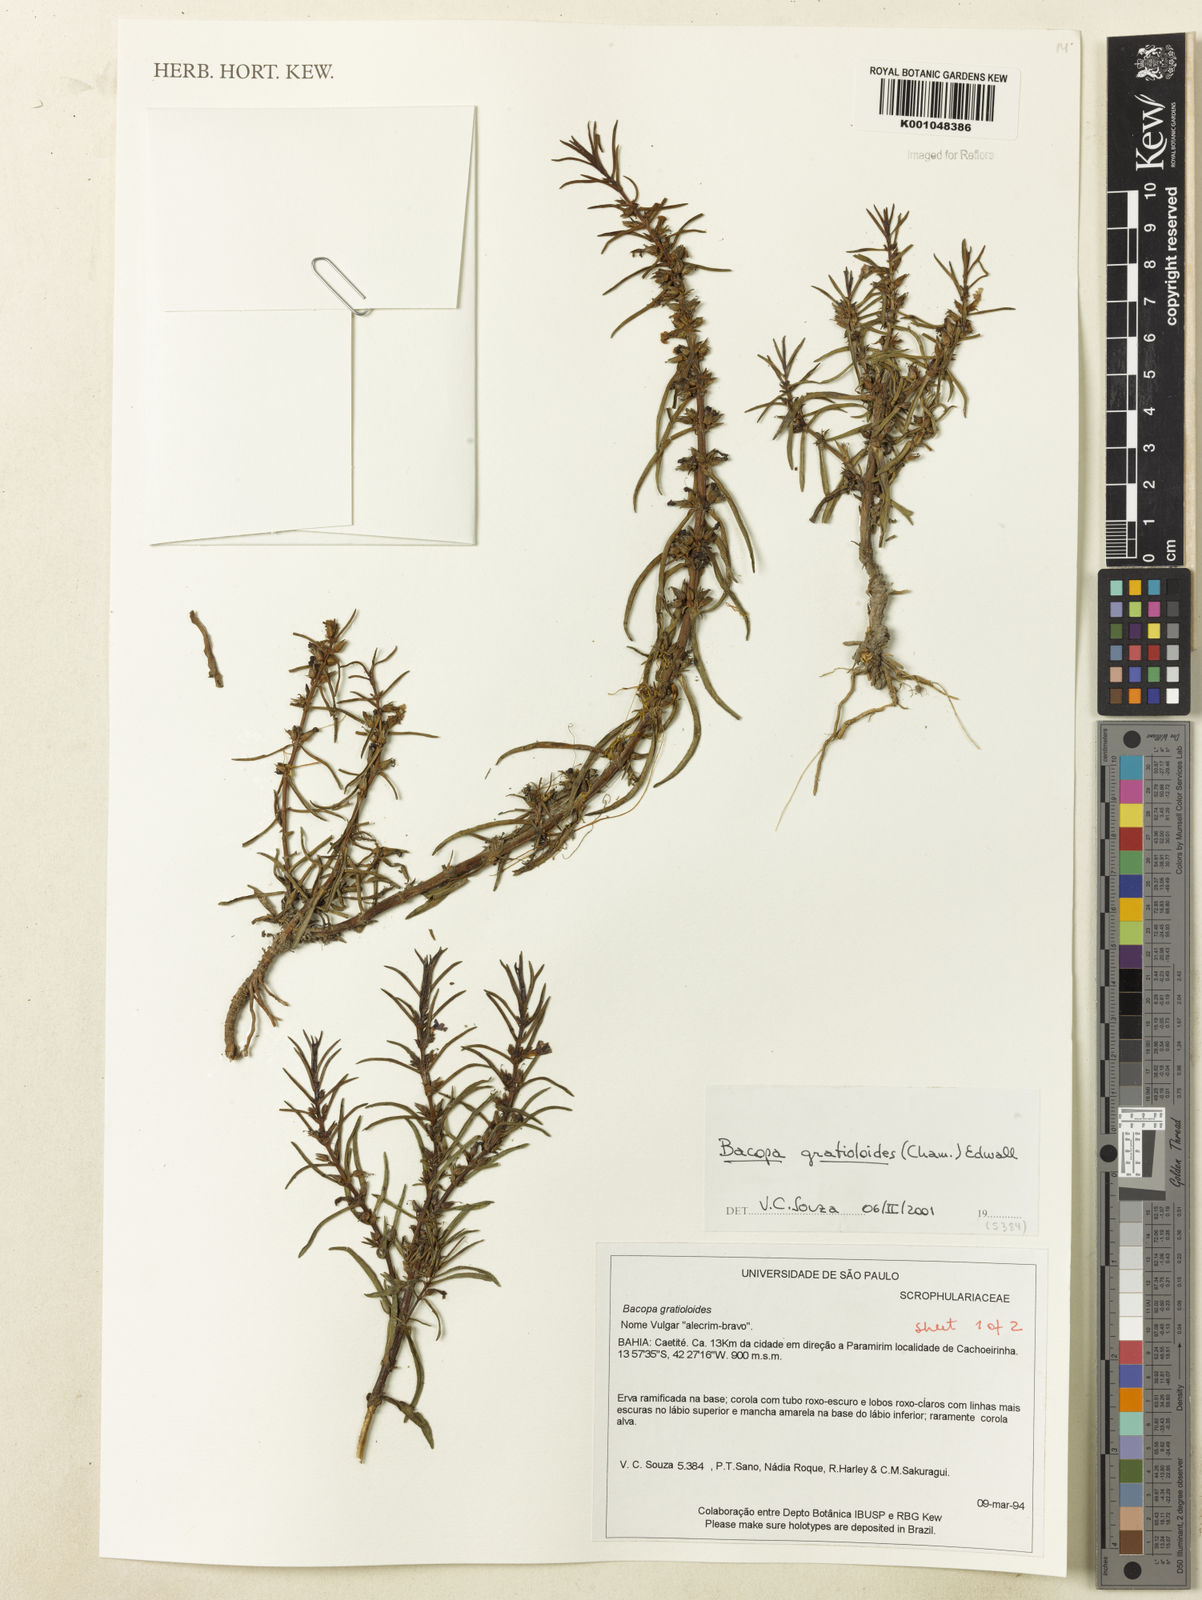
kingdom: Plantae
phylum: Tracheophyta
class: Magnoliopsida
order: Lamiales
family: Plantaginaceae
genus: Bacopa
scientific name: Bacopa
